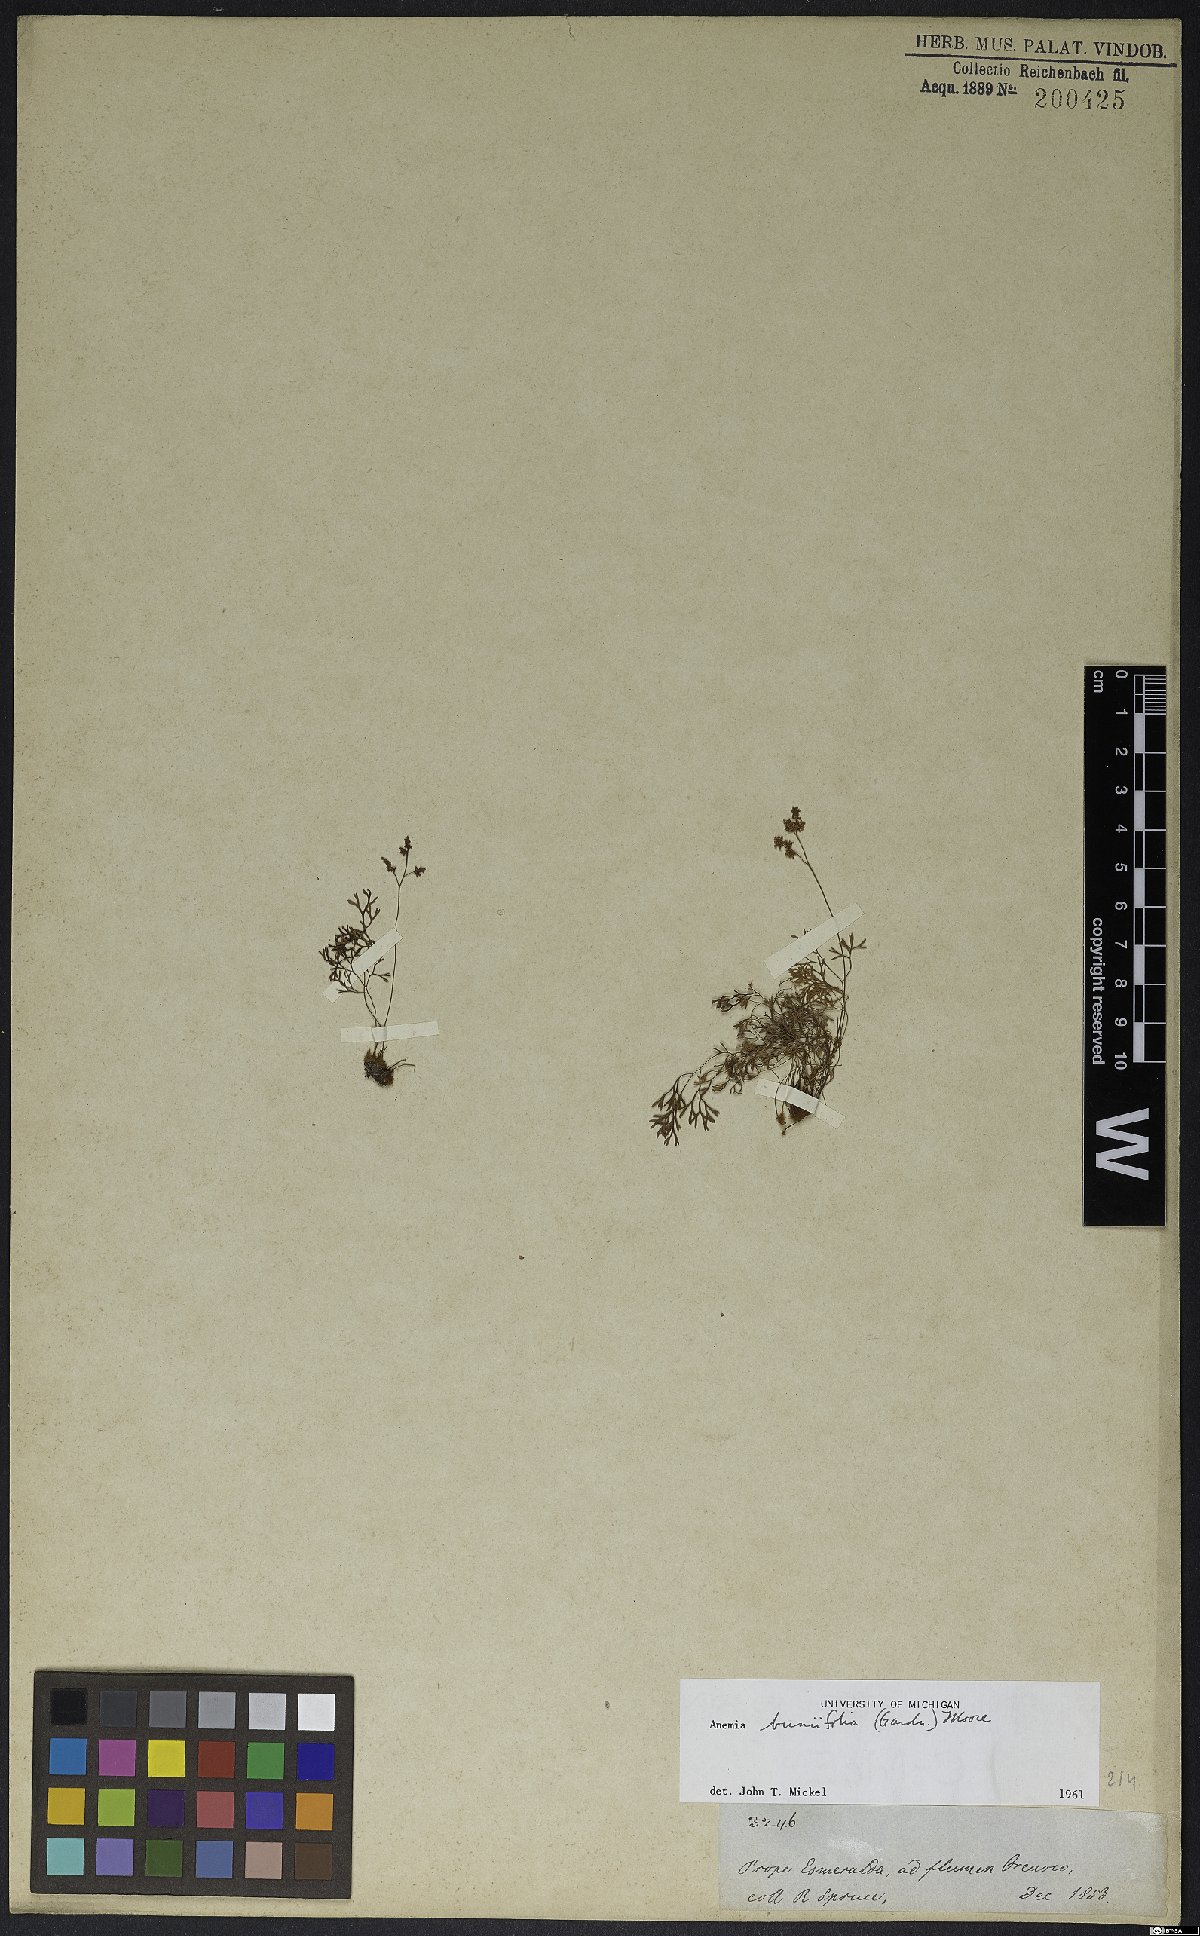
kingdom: Plantae
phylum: Tracheophyta
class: Polypodiopsida
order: Schizaeales
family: Anemiaceae
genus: Anemia
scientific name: Anemia buniifolia
